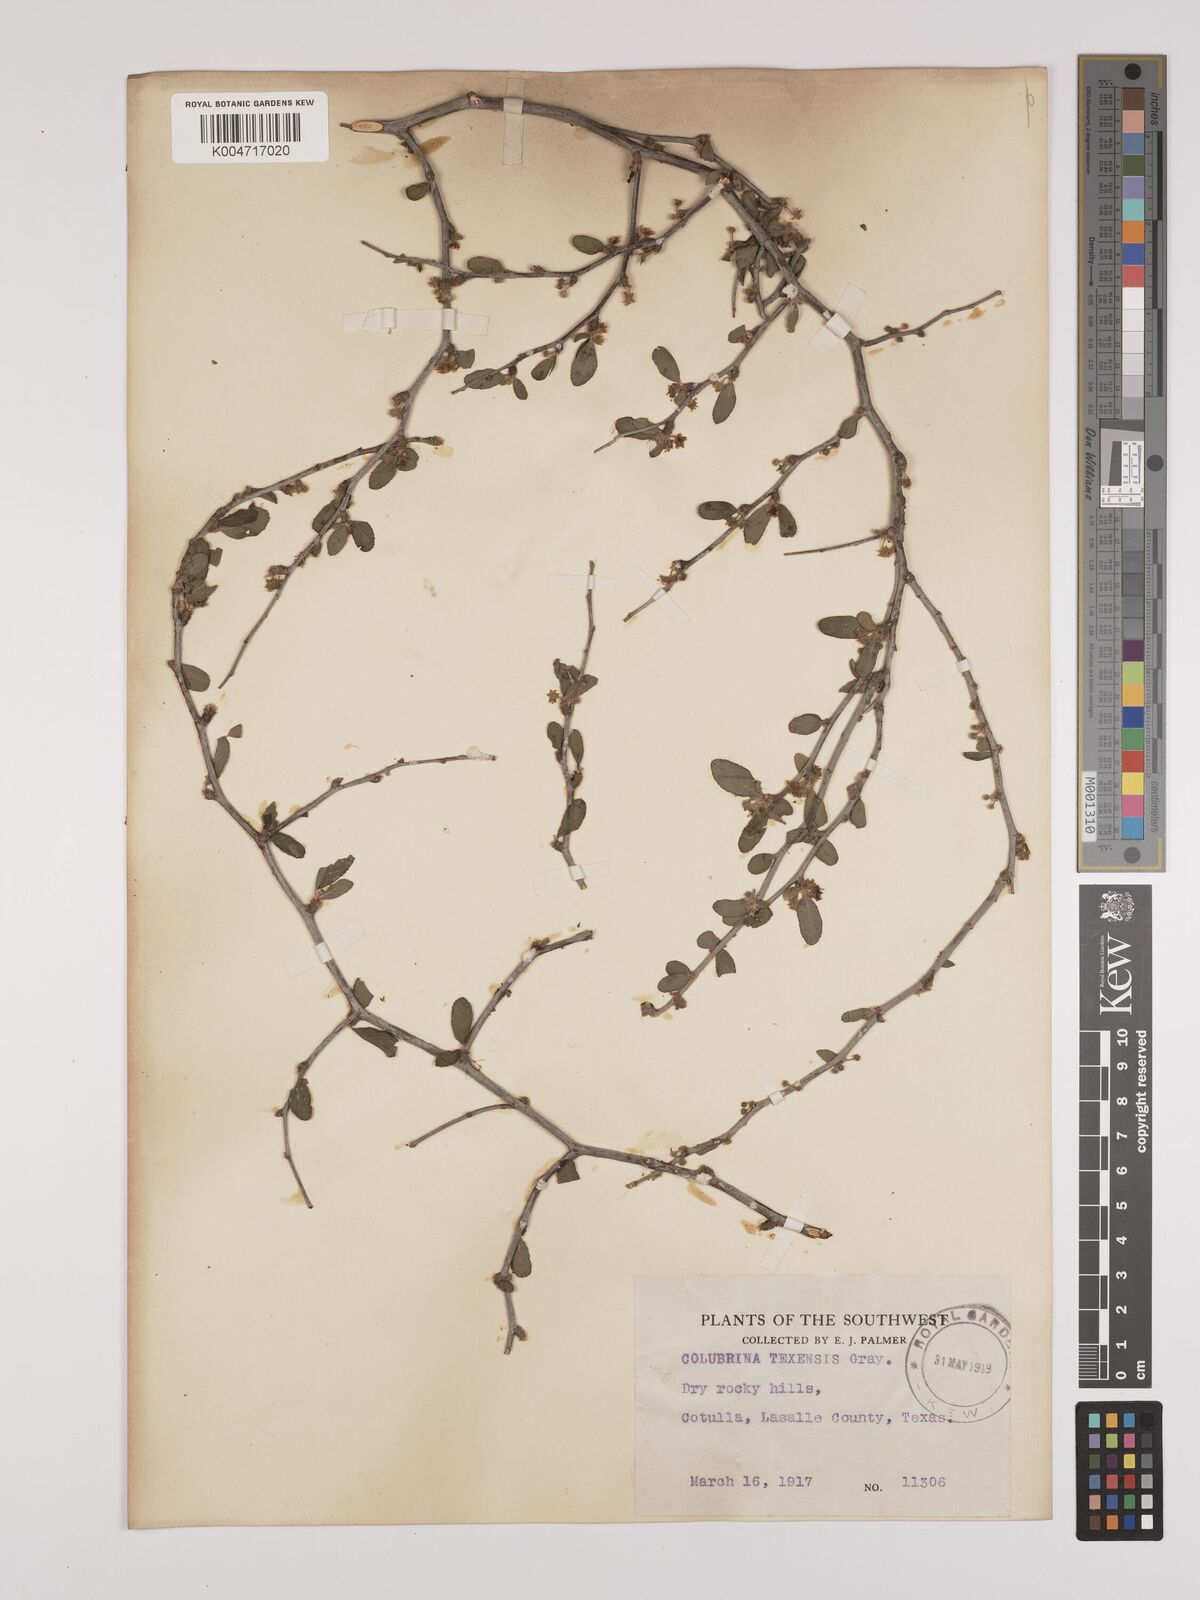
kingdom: Plantae
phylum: Tracheophyta
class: Magnoliopsida
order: Rosales
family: Rhamnaceae
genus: Colubrina
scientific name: Colubrina texensis
